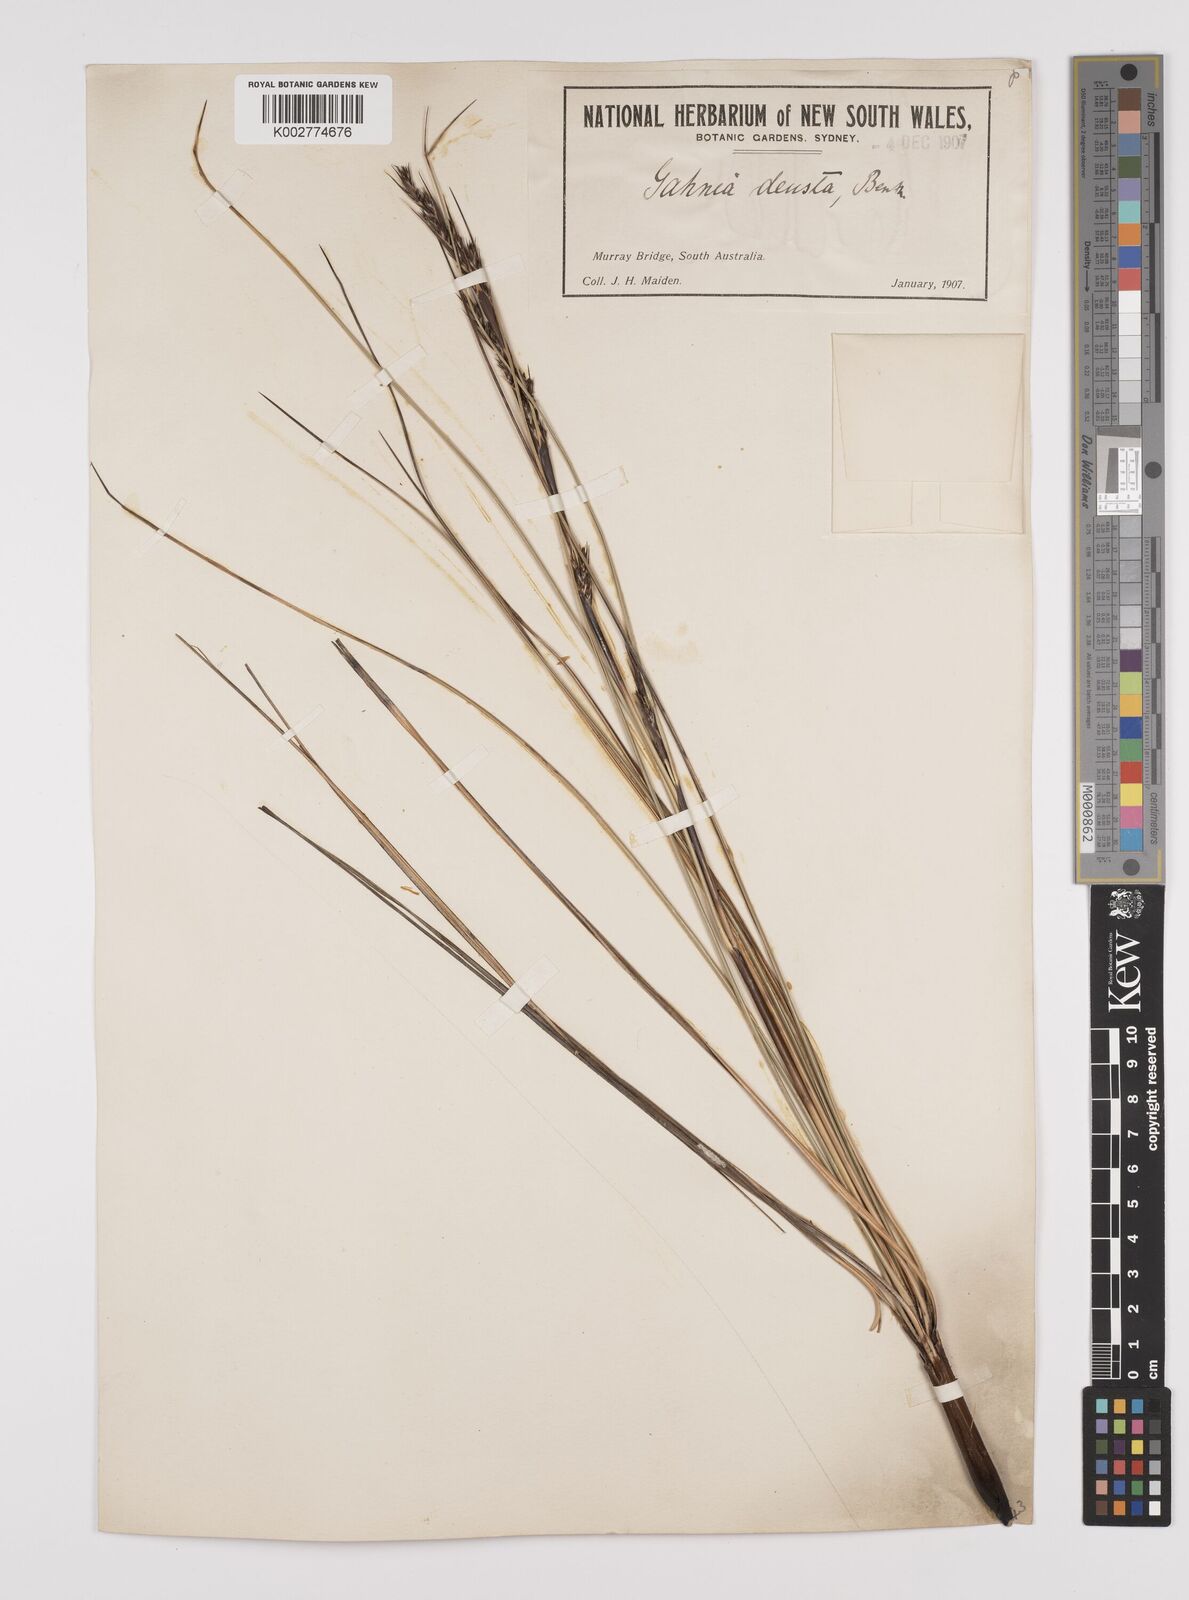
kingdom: Plantae
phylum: Tracheophyta
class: Liliopsida
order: Poales
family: Cyperaceae
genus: Gahnia
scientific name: Gahnia deusta
